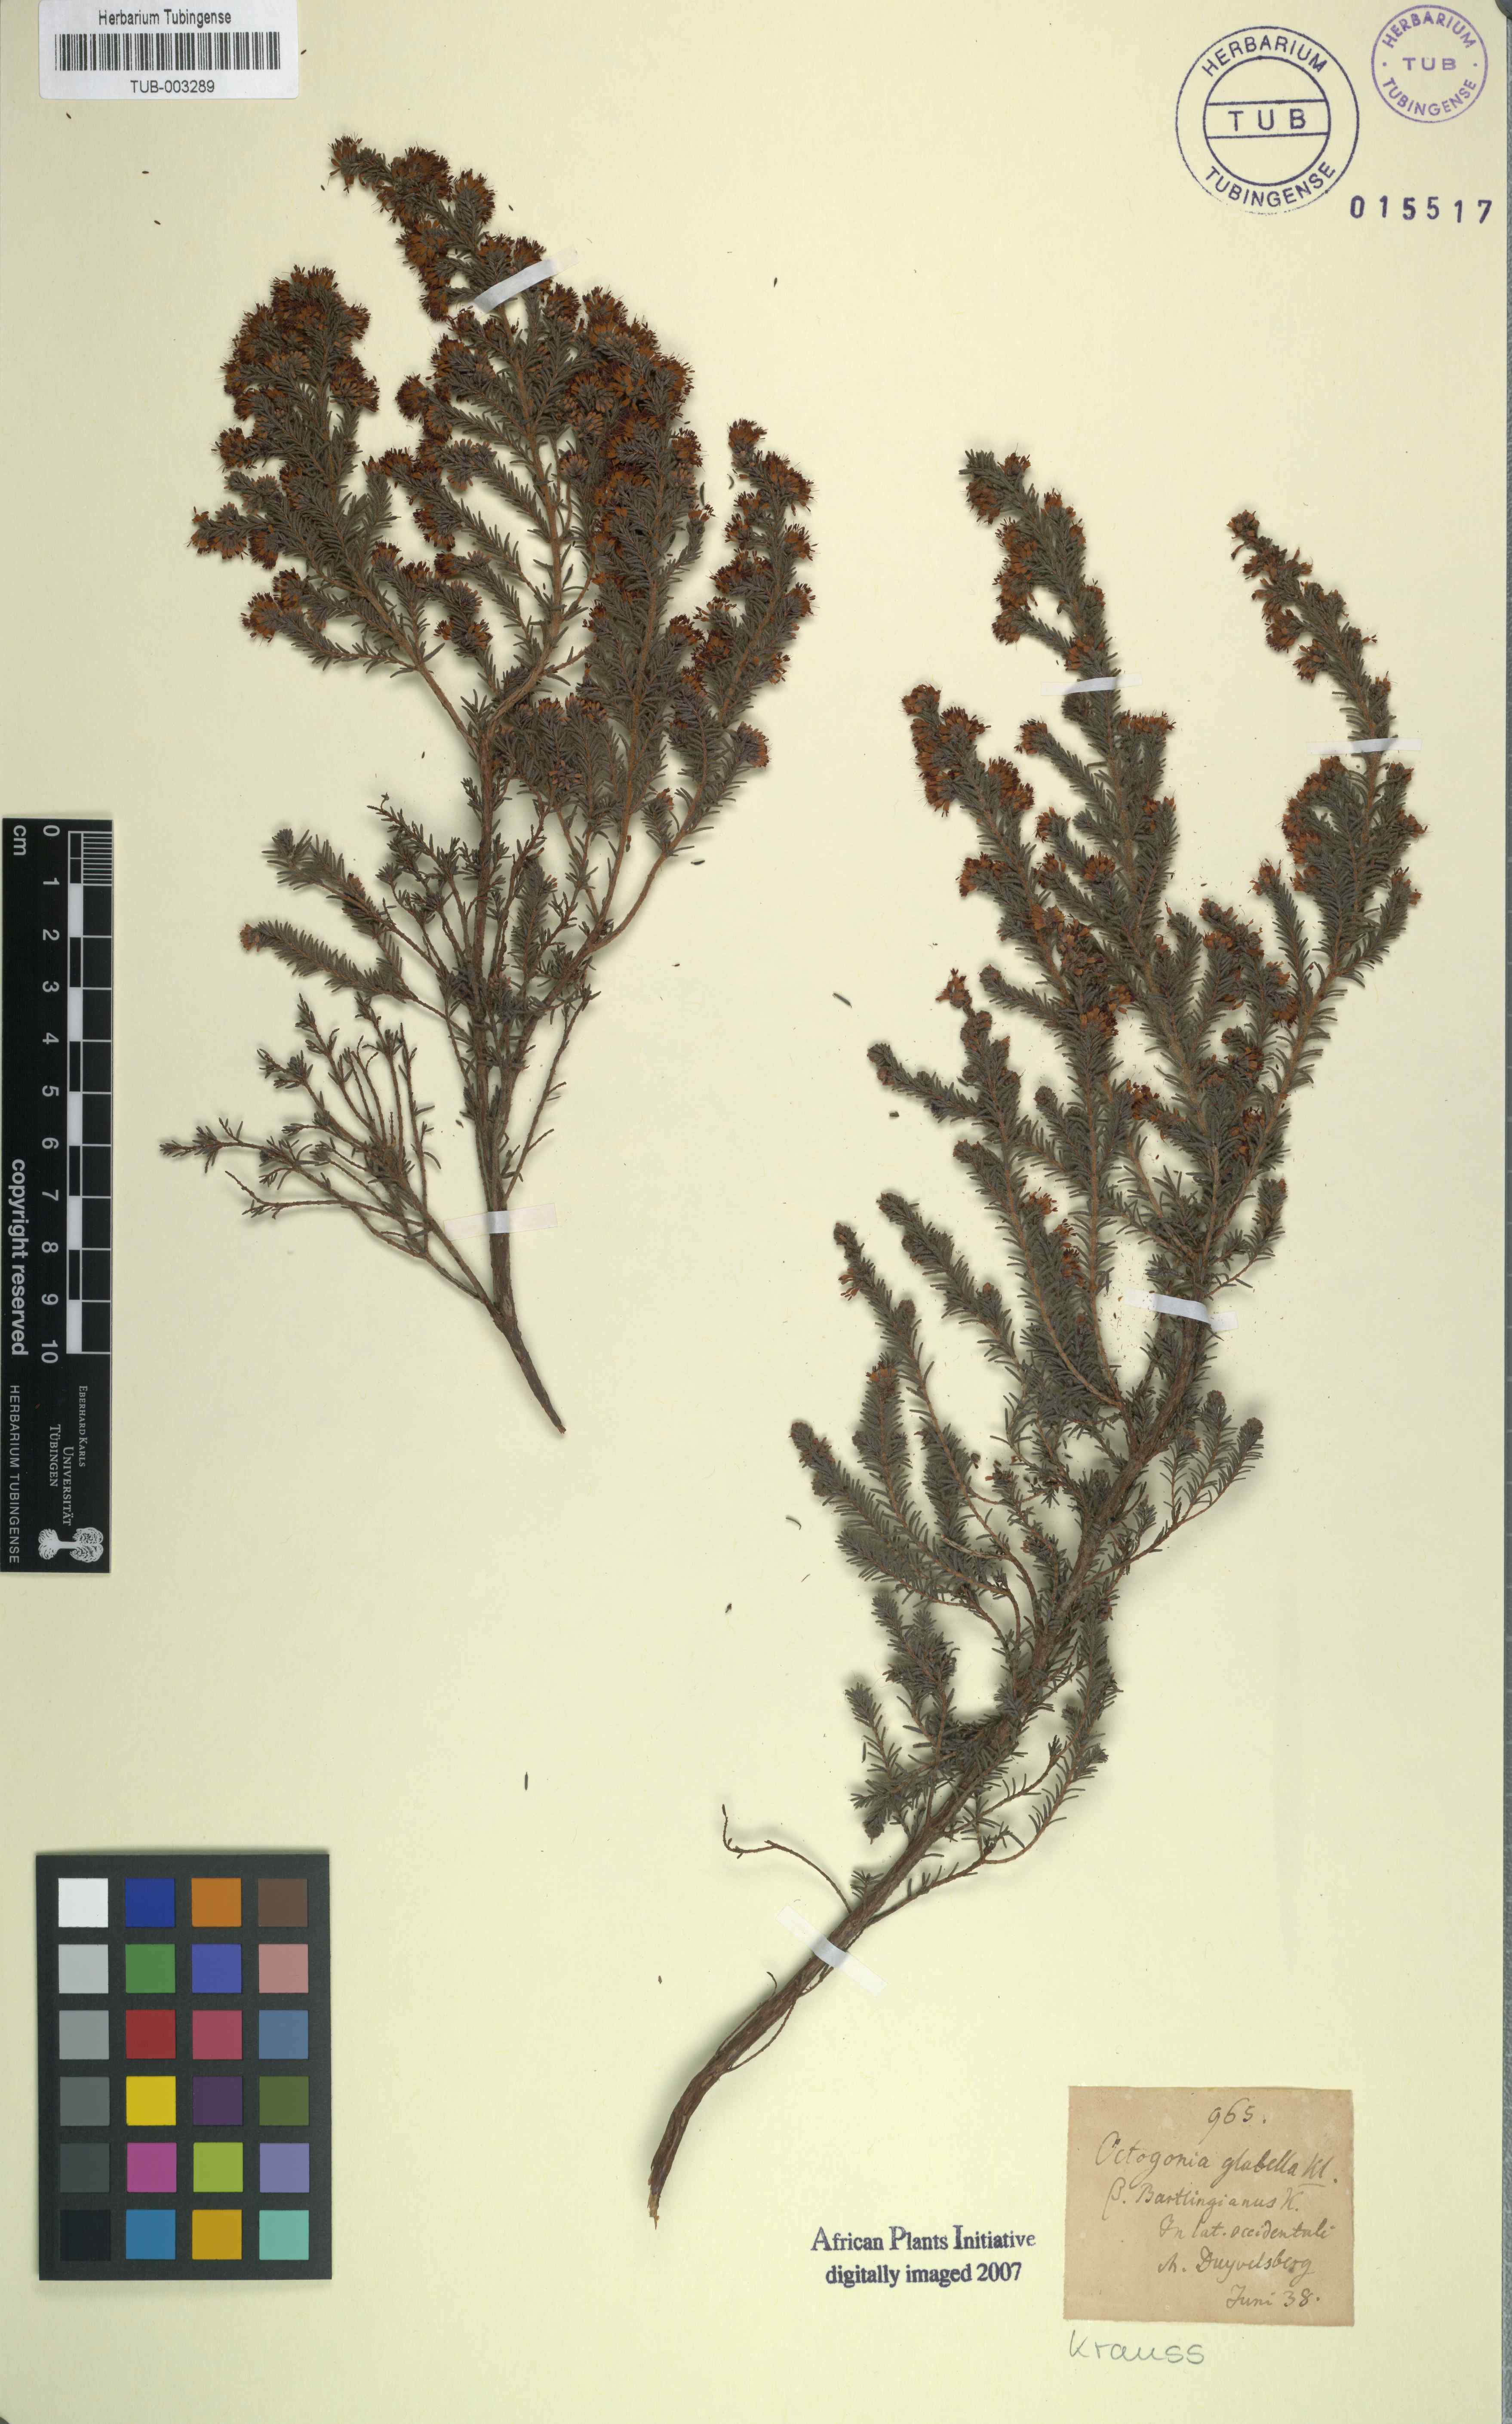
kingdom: Plantae
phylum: Tracheophyta
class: Magnoliopsida
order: Ericales
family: Ericaceae
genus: Erica
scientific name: Erica glabella
